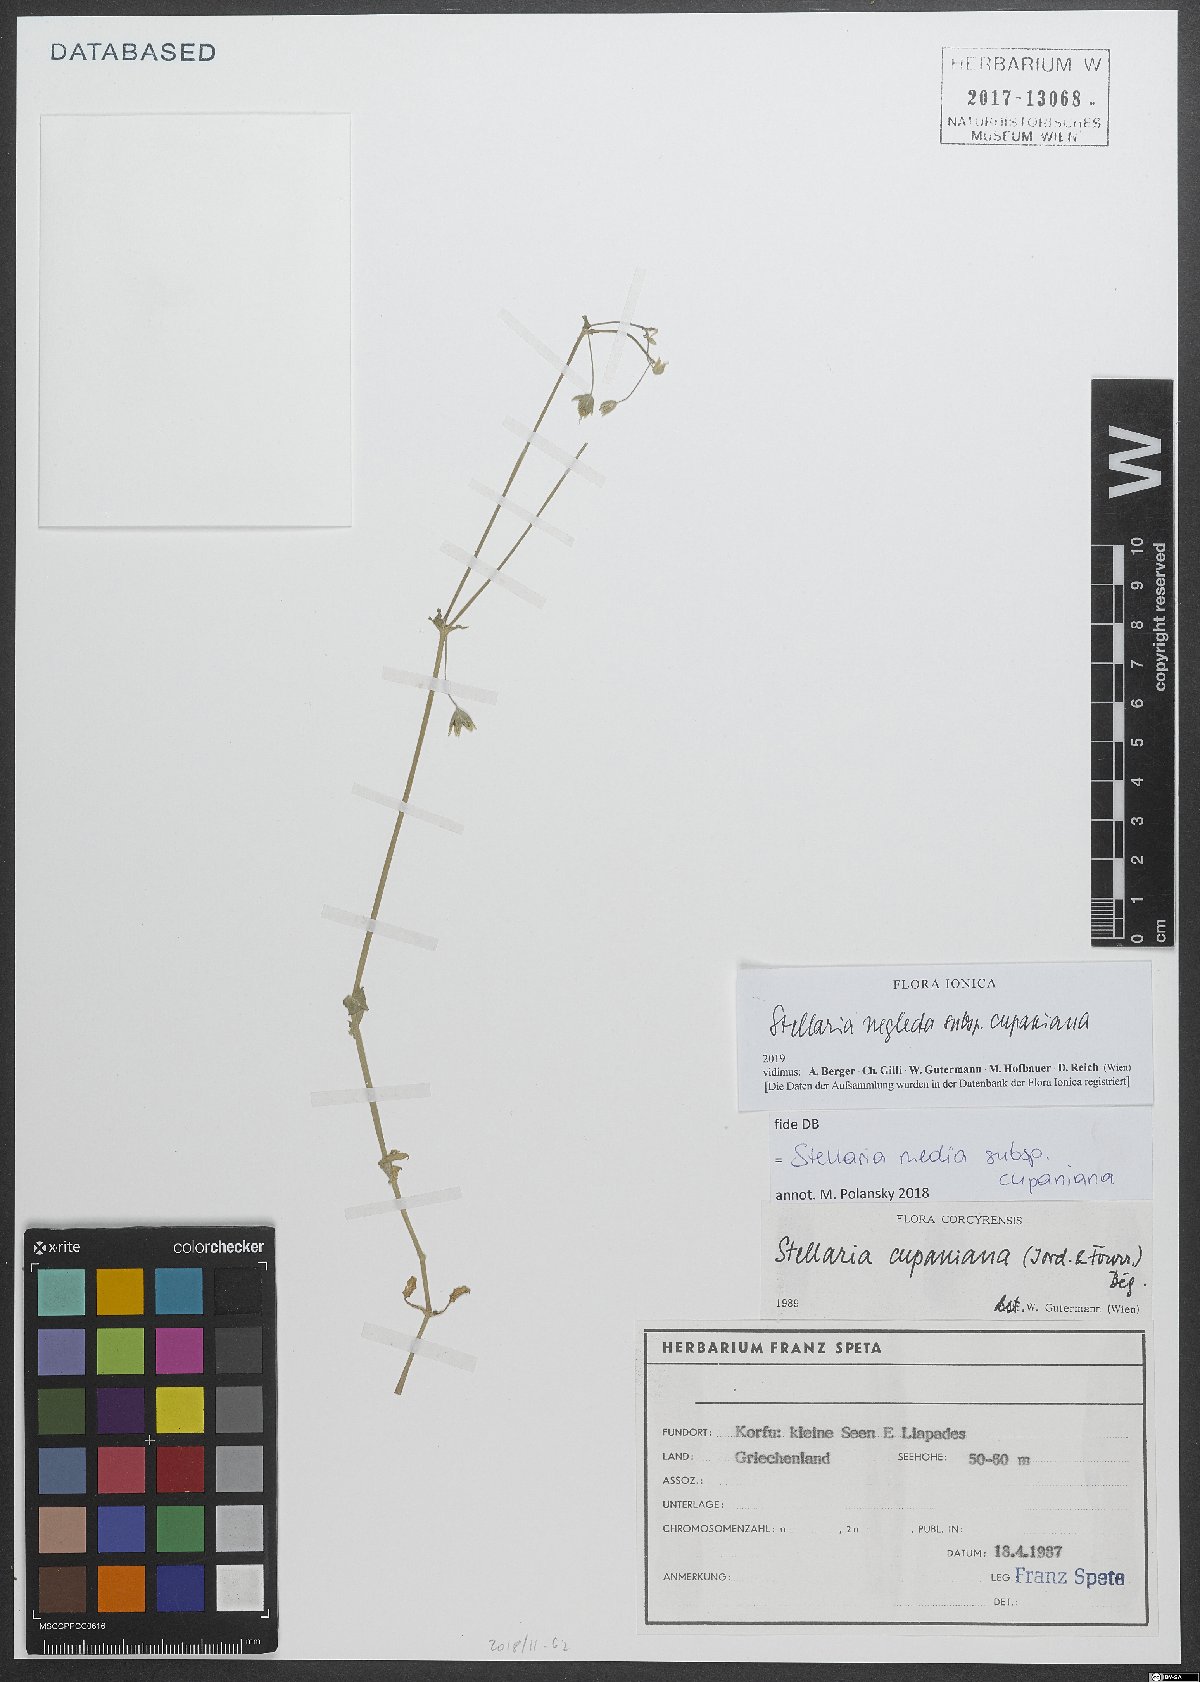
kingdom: Plantae
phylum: Tracheophyta
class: Magnoliopsida
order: Caryophyllales
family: Caryophyllaceae
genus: Stellaria
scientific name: Stellaria cupaniana
